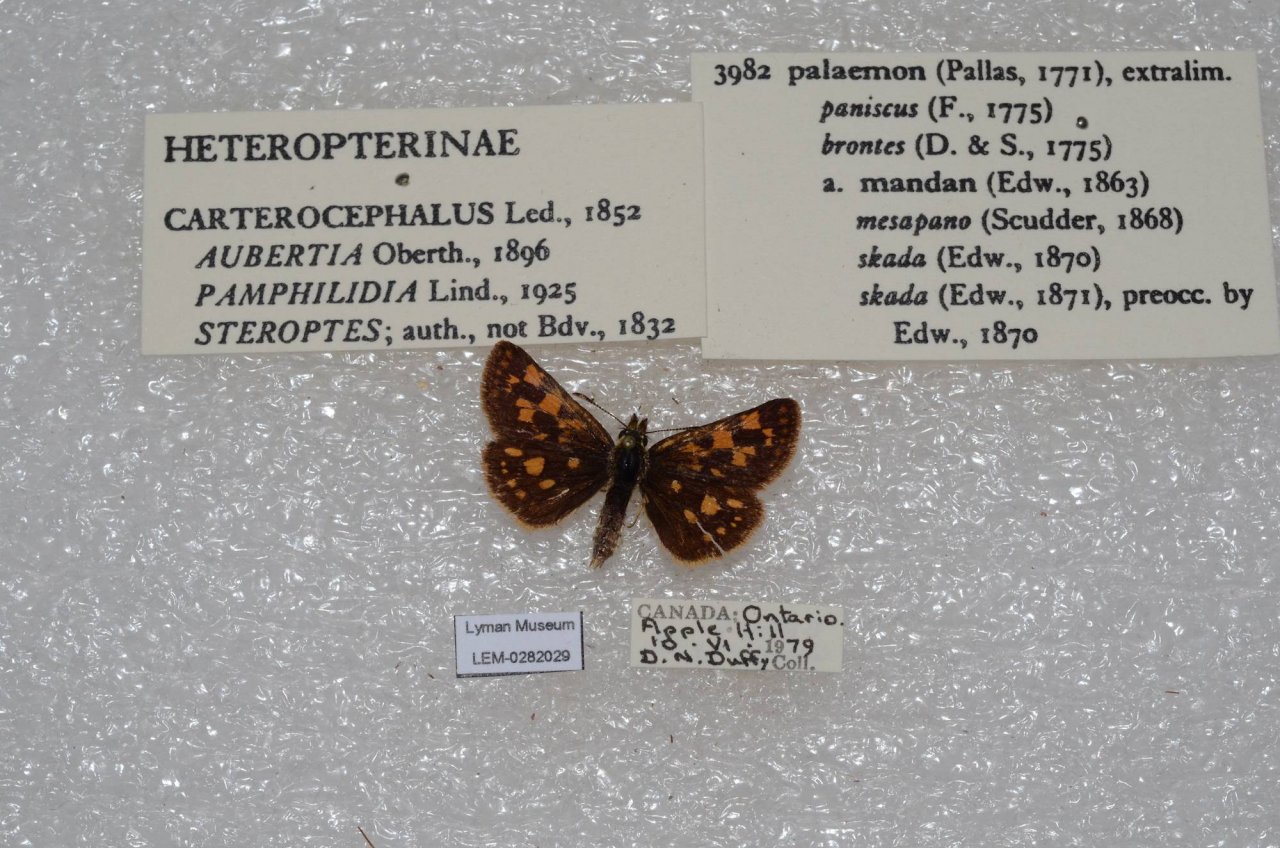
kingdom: Animalia
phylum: Arthropoda
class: Insecta
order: Lepidoptera
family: Hesperiidae
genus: Carterocephalus
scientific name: Carterocephalus palaemon
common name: Chequered Skipper
